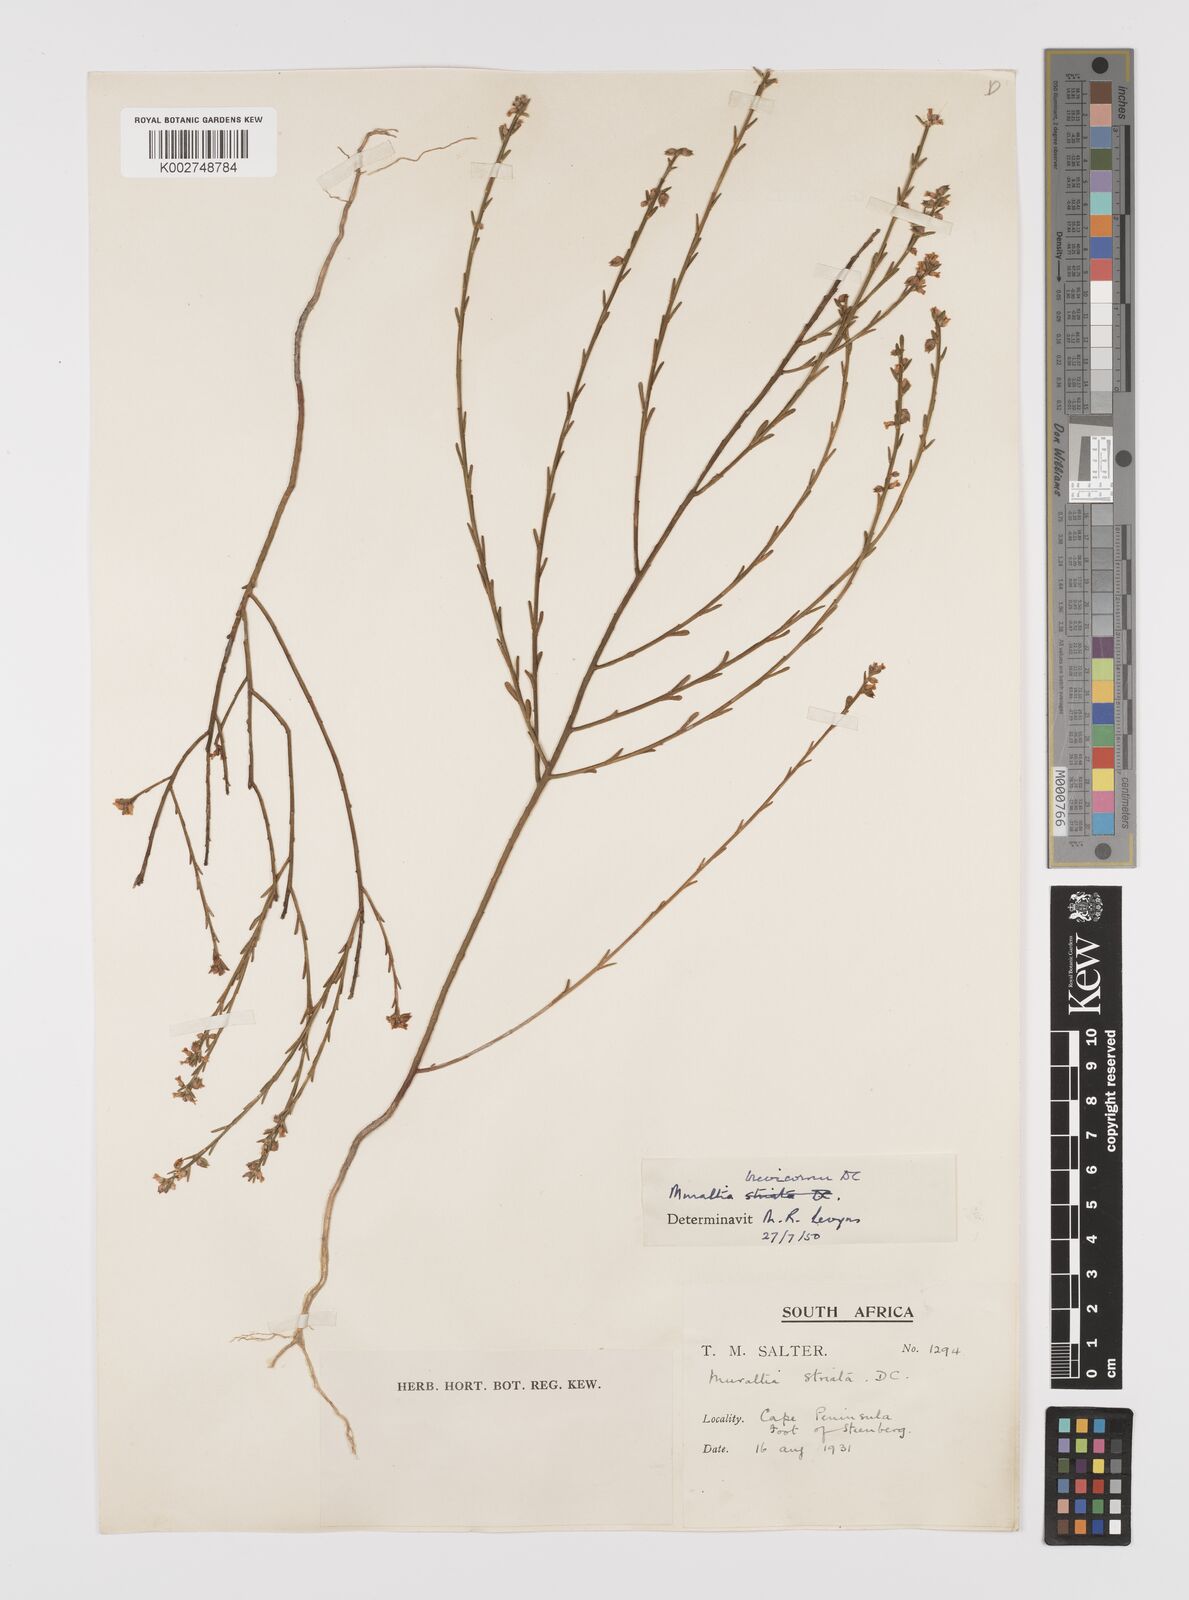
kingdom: Plantae
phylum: Tracheophyta
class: Magnoliopsida
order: Fabales
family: Polygalaceae
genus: Muraltia
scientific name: Muraltia striata
